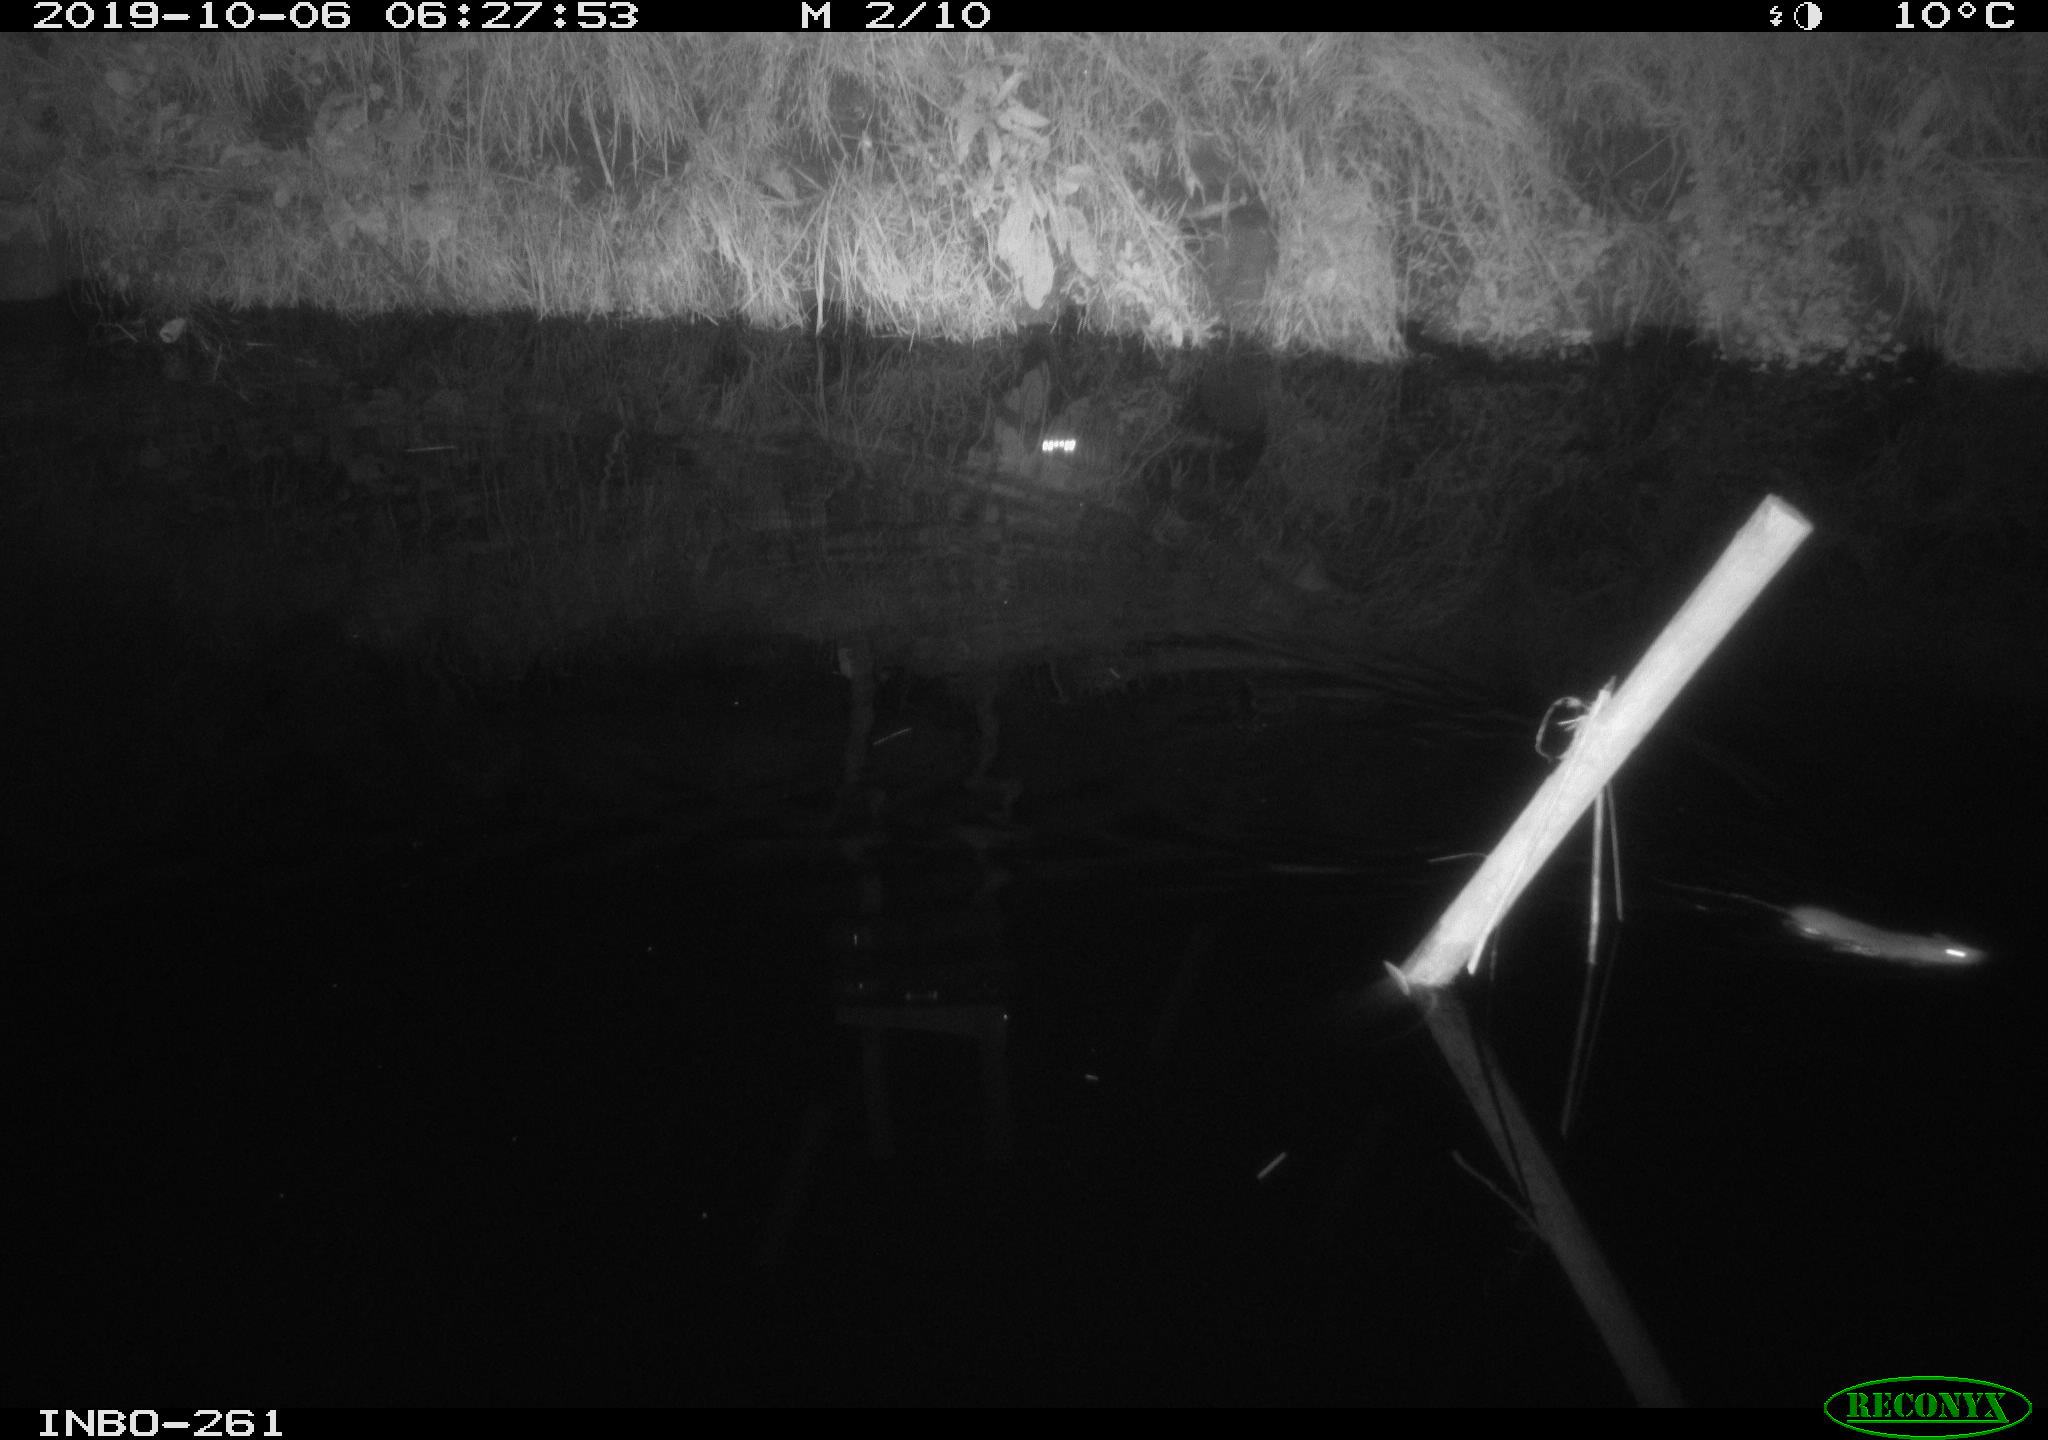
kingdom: Animalia
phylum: Chordata
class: Mammalia
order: Rodentia
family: Muridae
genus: Rattus
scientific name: Rattus norvegicus
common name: Brown rat
